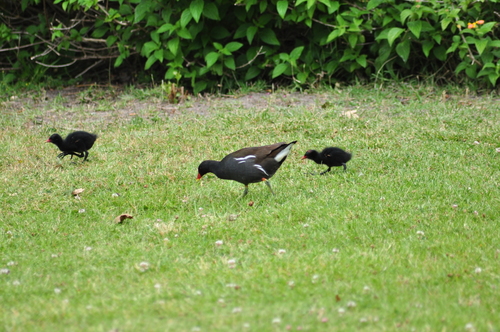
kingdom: Animalia
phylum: Chordata
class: Aves
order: Gruiformes
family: Rallidae
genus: Gallinula
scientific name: Gallinula chloropus
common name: Common moorhen
